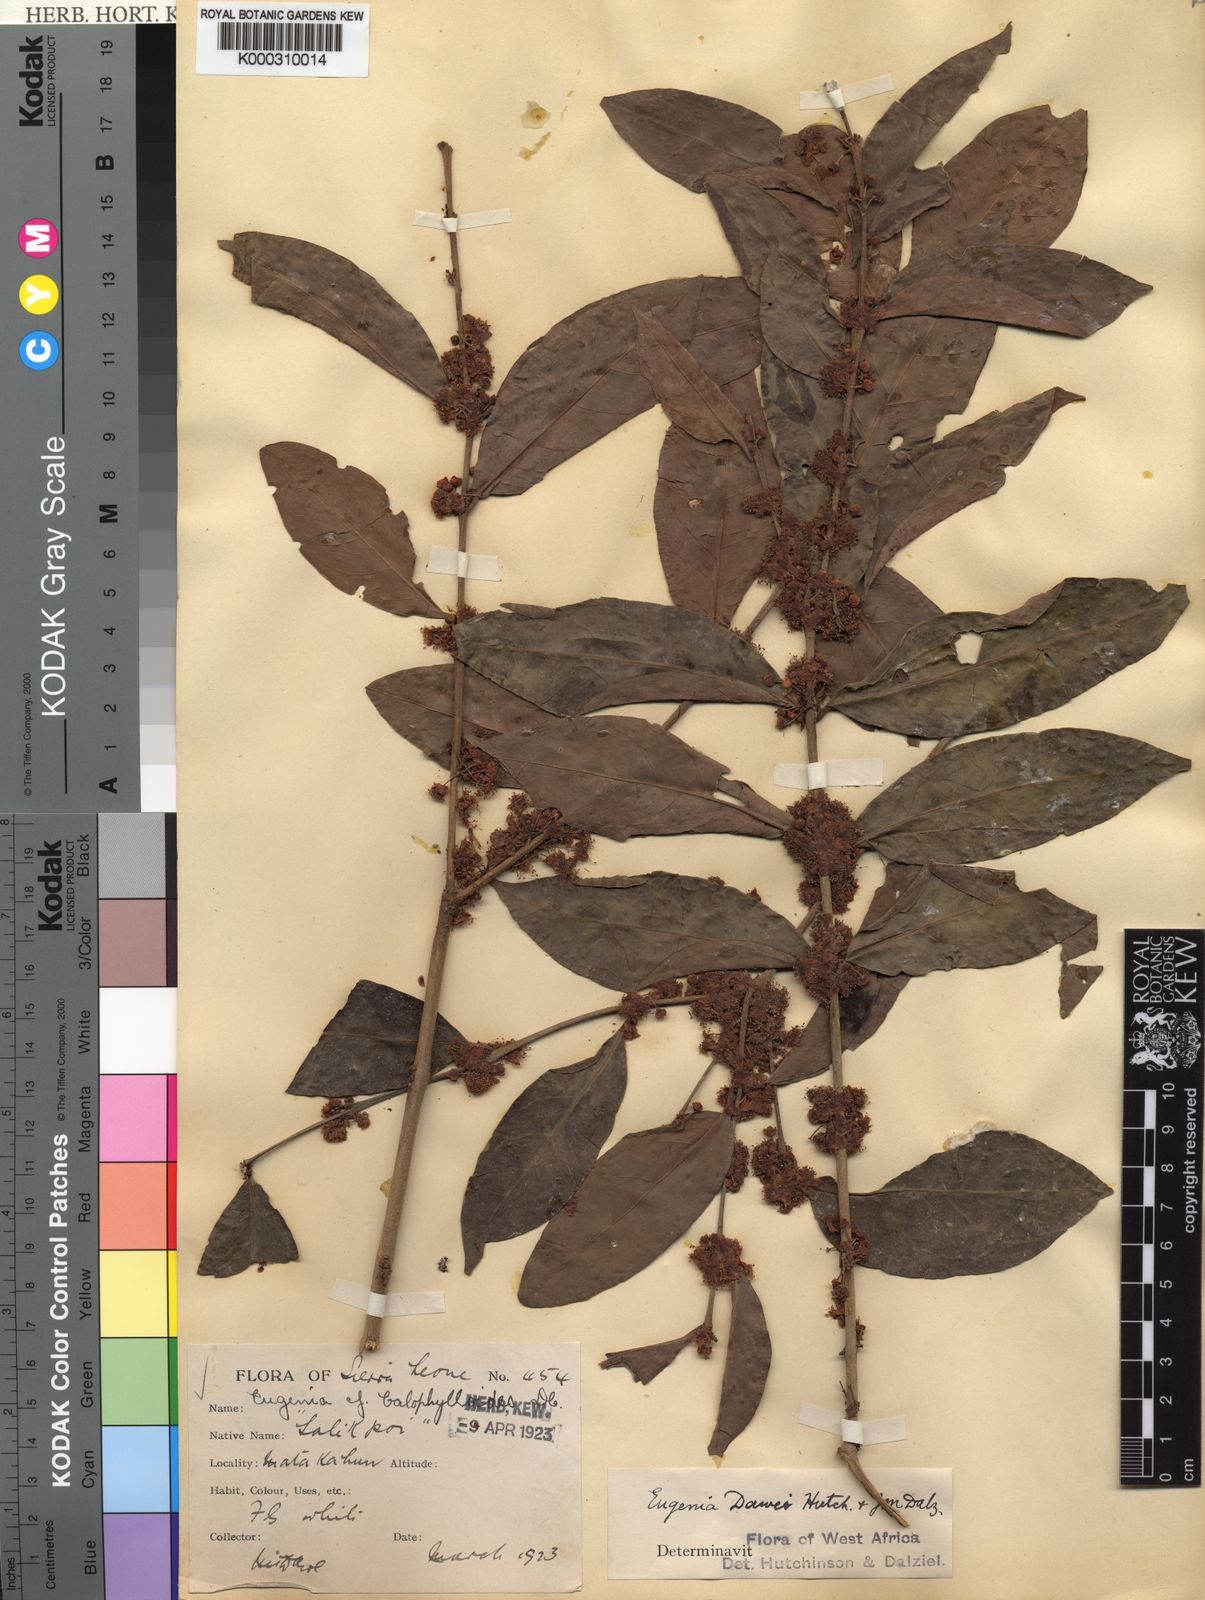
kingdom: Plantae
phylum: Tracheophyta
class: Magnoliopsida
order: Myrtales
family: Myrtaceae
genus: Eugenia
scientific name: Eugenia kalbreyeri
